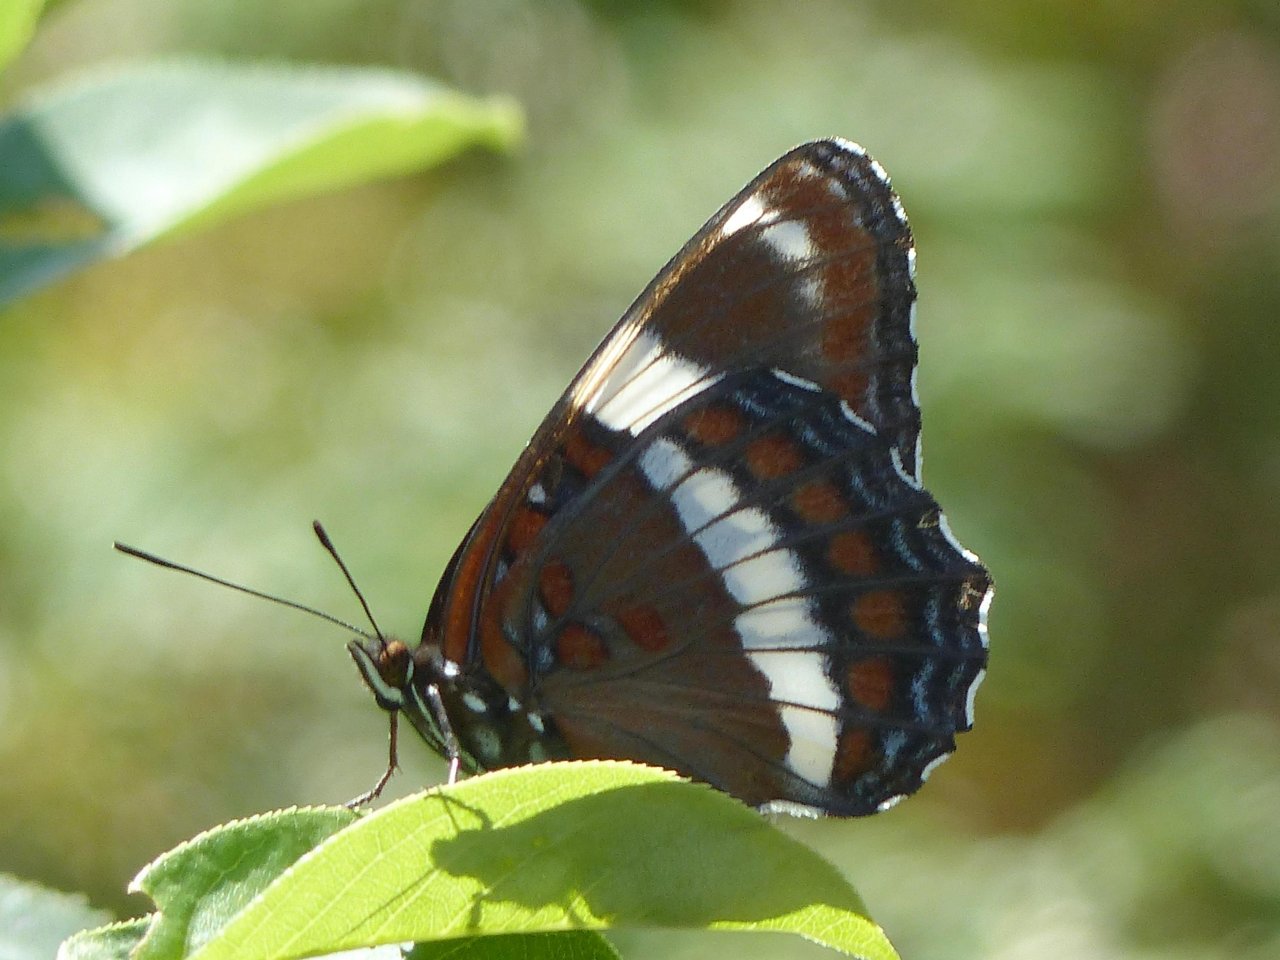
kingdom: Animalia
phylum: Arthropoda
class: Insecta
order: Lepidoptera
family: Nymphalidae
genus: Limenitis
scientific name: Limenitis arthemis
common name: Red-spotted Admiral
